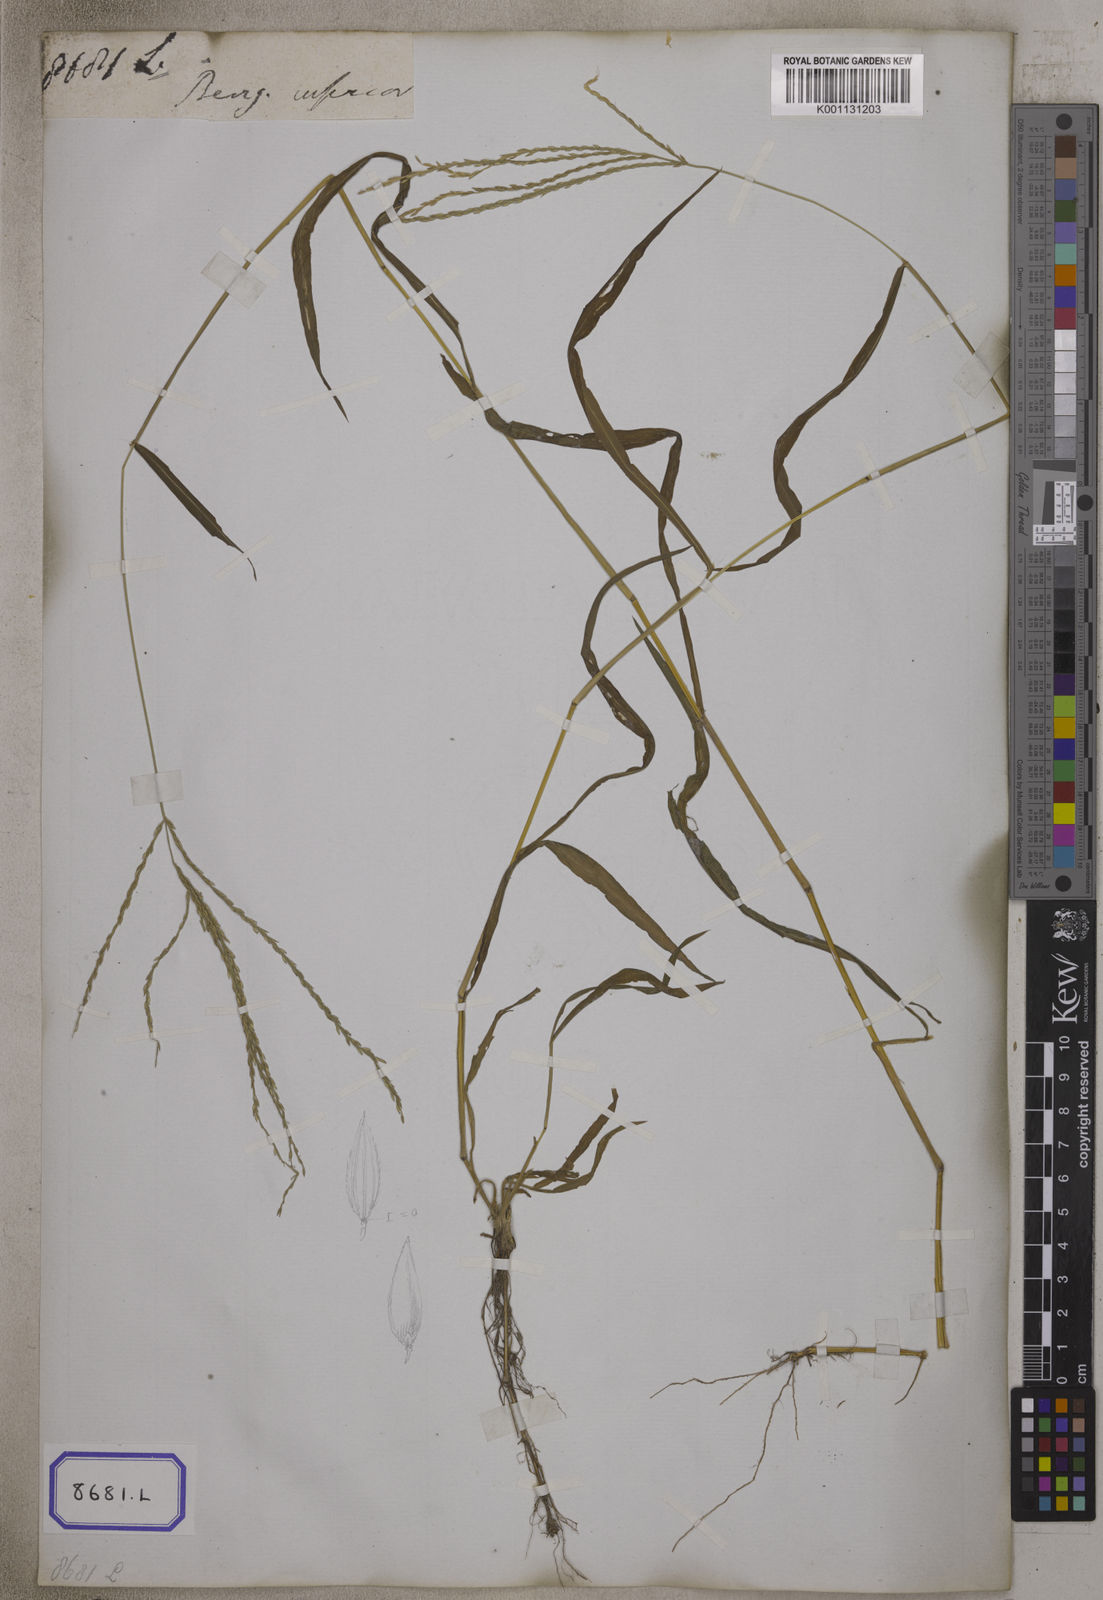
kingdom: Plantae
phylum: Tracheophyta
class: Liliopsida
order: Poales
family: Poaceae
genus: Digitaria
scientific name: Digitaria sanguinalis
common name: Hairy crabgrass
